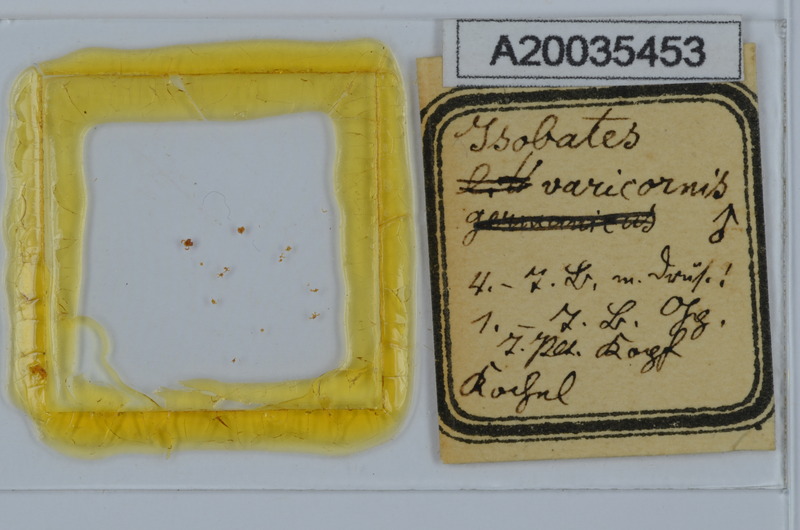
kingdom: Animalia
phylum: Arthropoda
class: Diplopoda
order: Julida
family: Nemasomatidae
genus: Isobates
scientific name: Isobates varicornis
